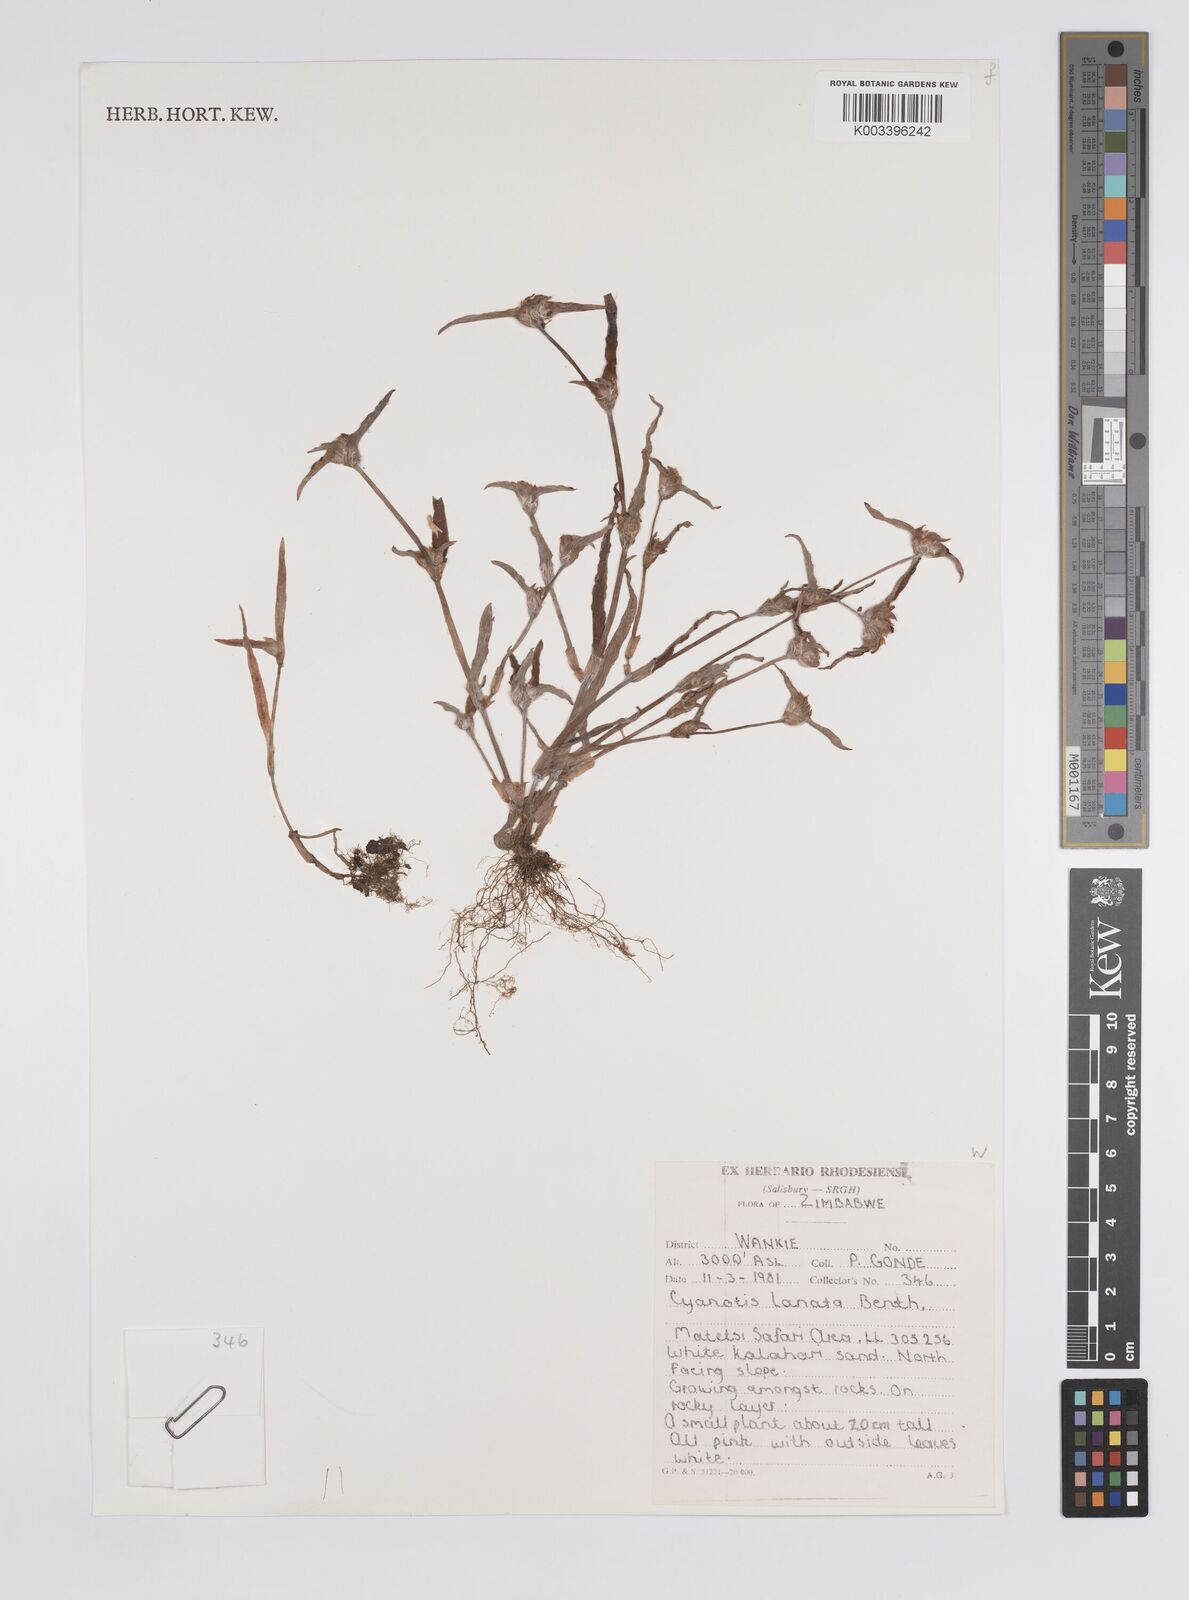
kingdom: Plantae
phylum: Tracheophyta
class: Liliopsida
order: Commelinales
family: Commelinaceae
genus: Cyanotis
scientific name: Cyanotis lanata
